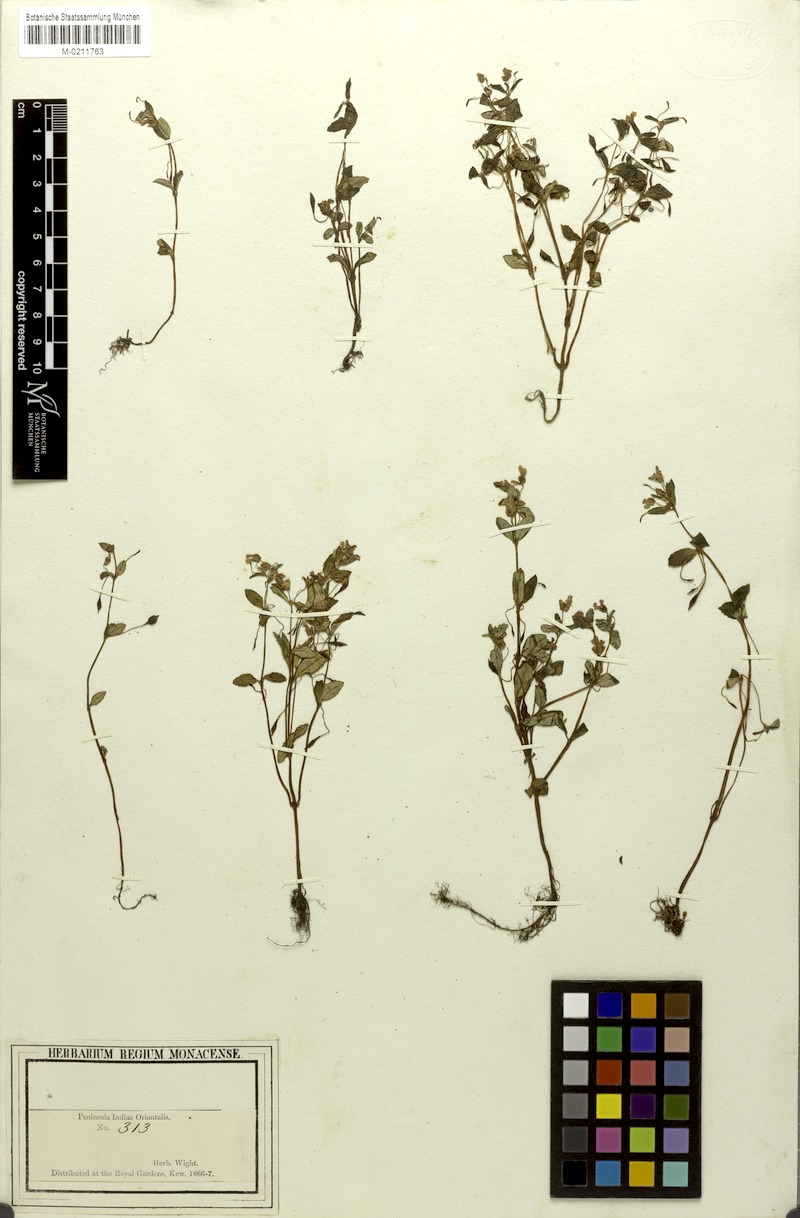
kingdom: Plantae
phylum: Tracheophyta
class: Magnoliopsida
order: Ericales
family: Balsaminaceae
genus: Impatiens
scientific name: Impatiens inconspicua
